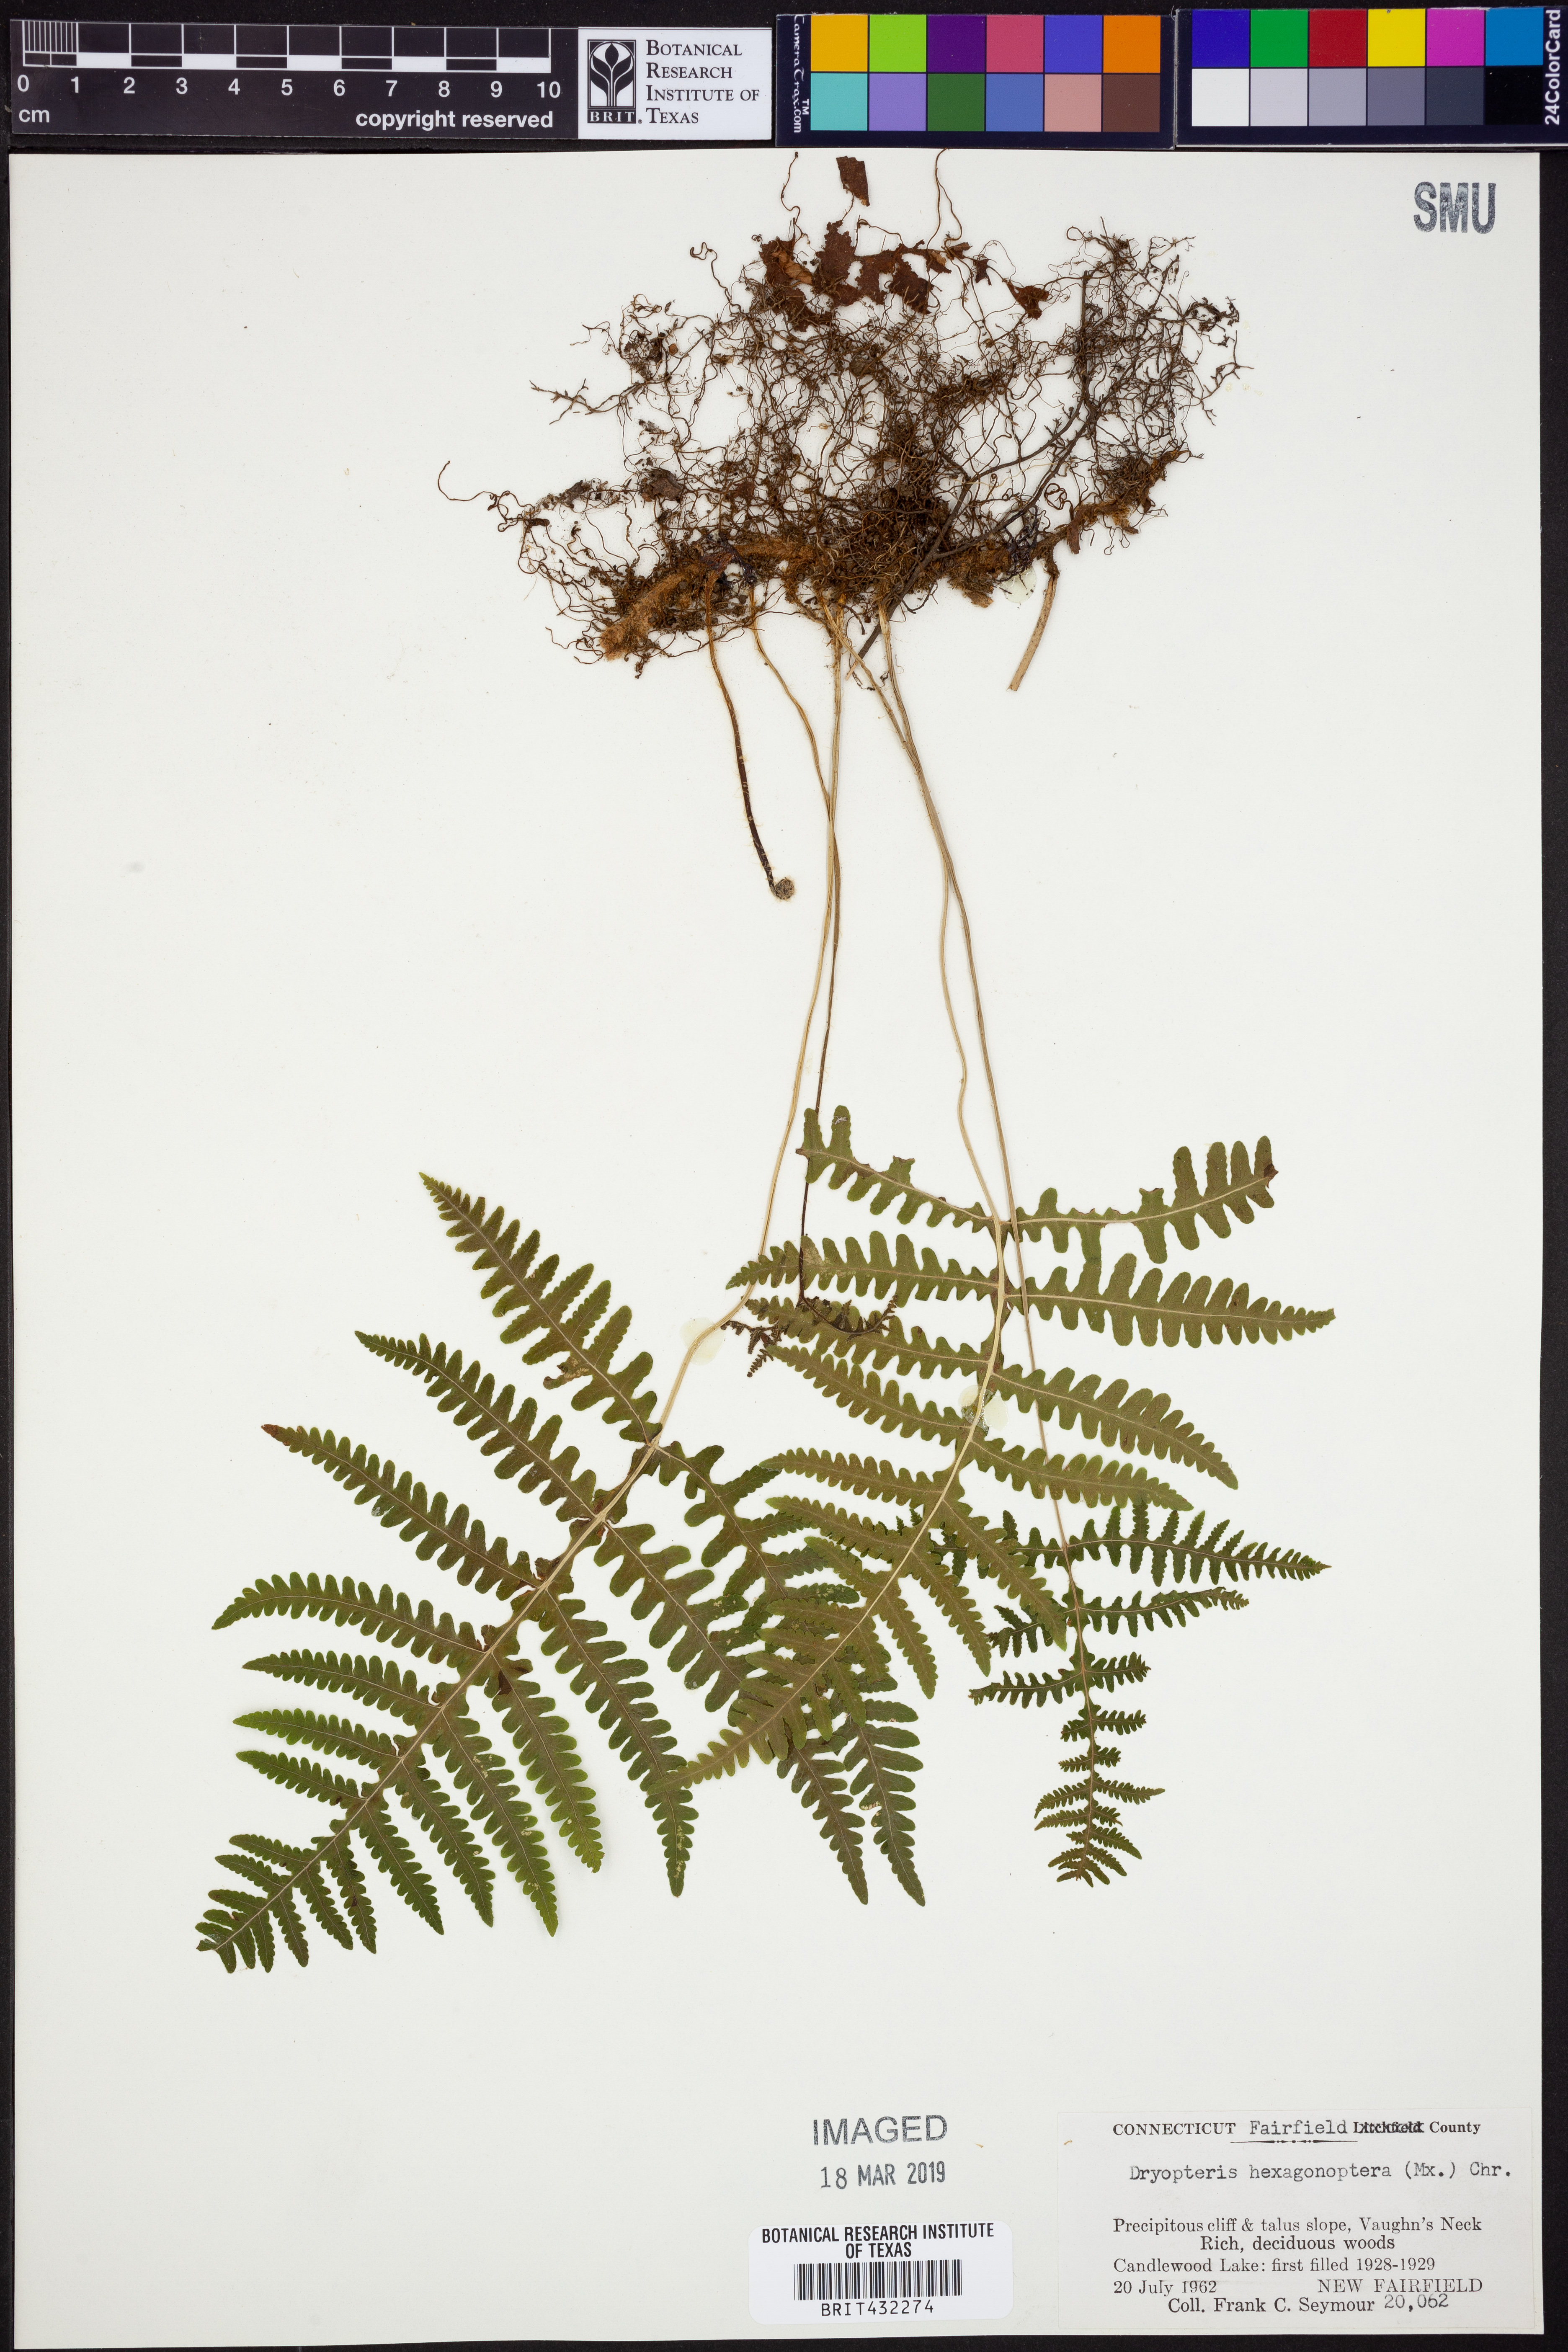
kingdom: Plantae
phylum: Tracheophyta
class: Polypodiopsida
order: Polypodiales
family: Dryopteridaceae
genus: Dryopteris
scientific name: Dryopteris hexagonaptera
